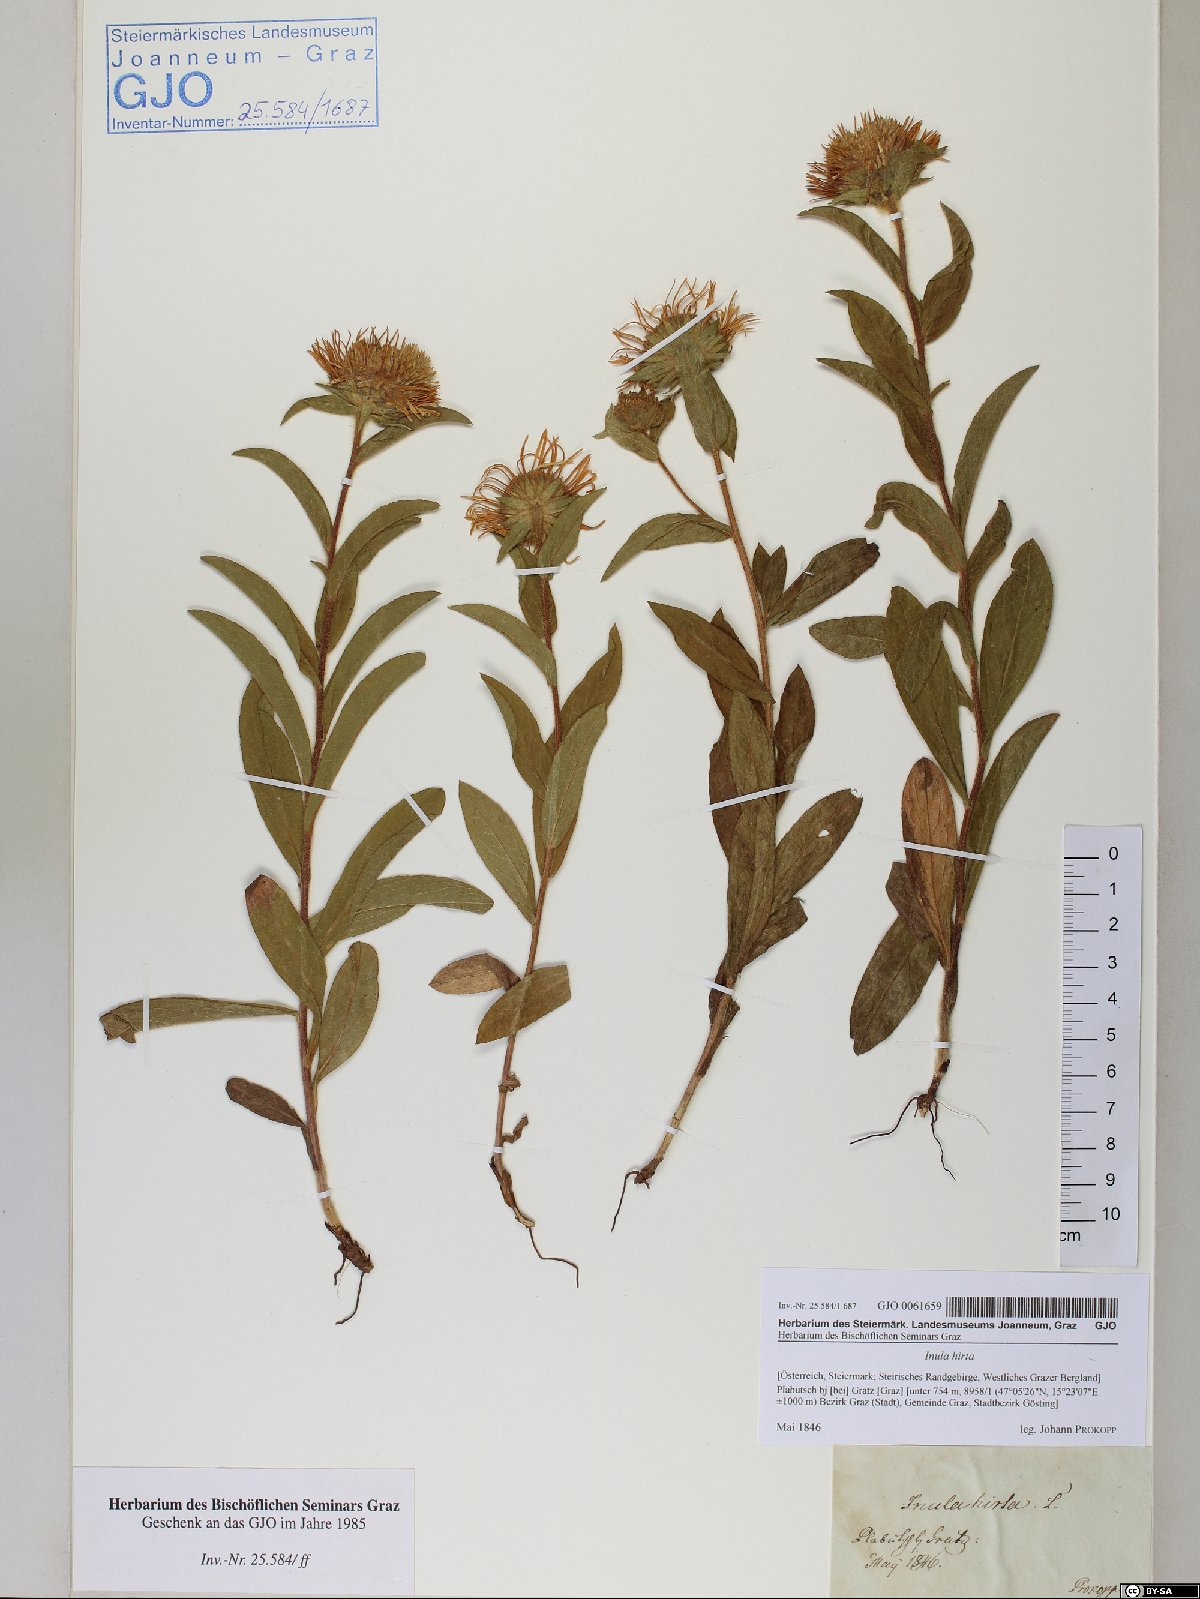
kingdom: Plantae
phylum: Tracheophyta
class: Magnoliopsida
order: Asterales
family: Asteraceae
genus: Pentanema
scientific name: Pentanema hirtum
